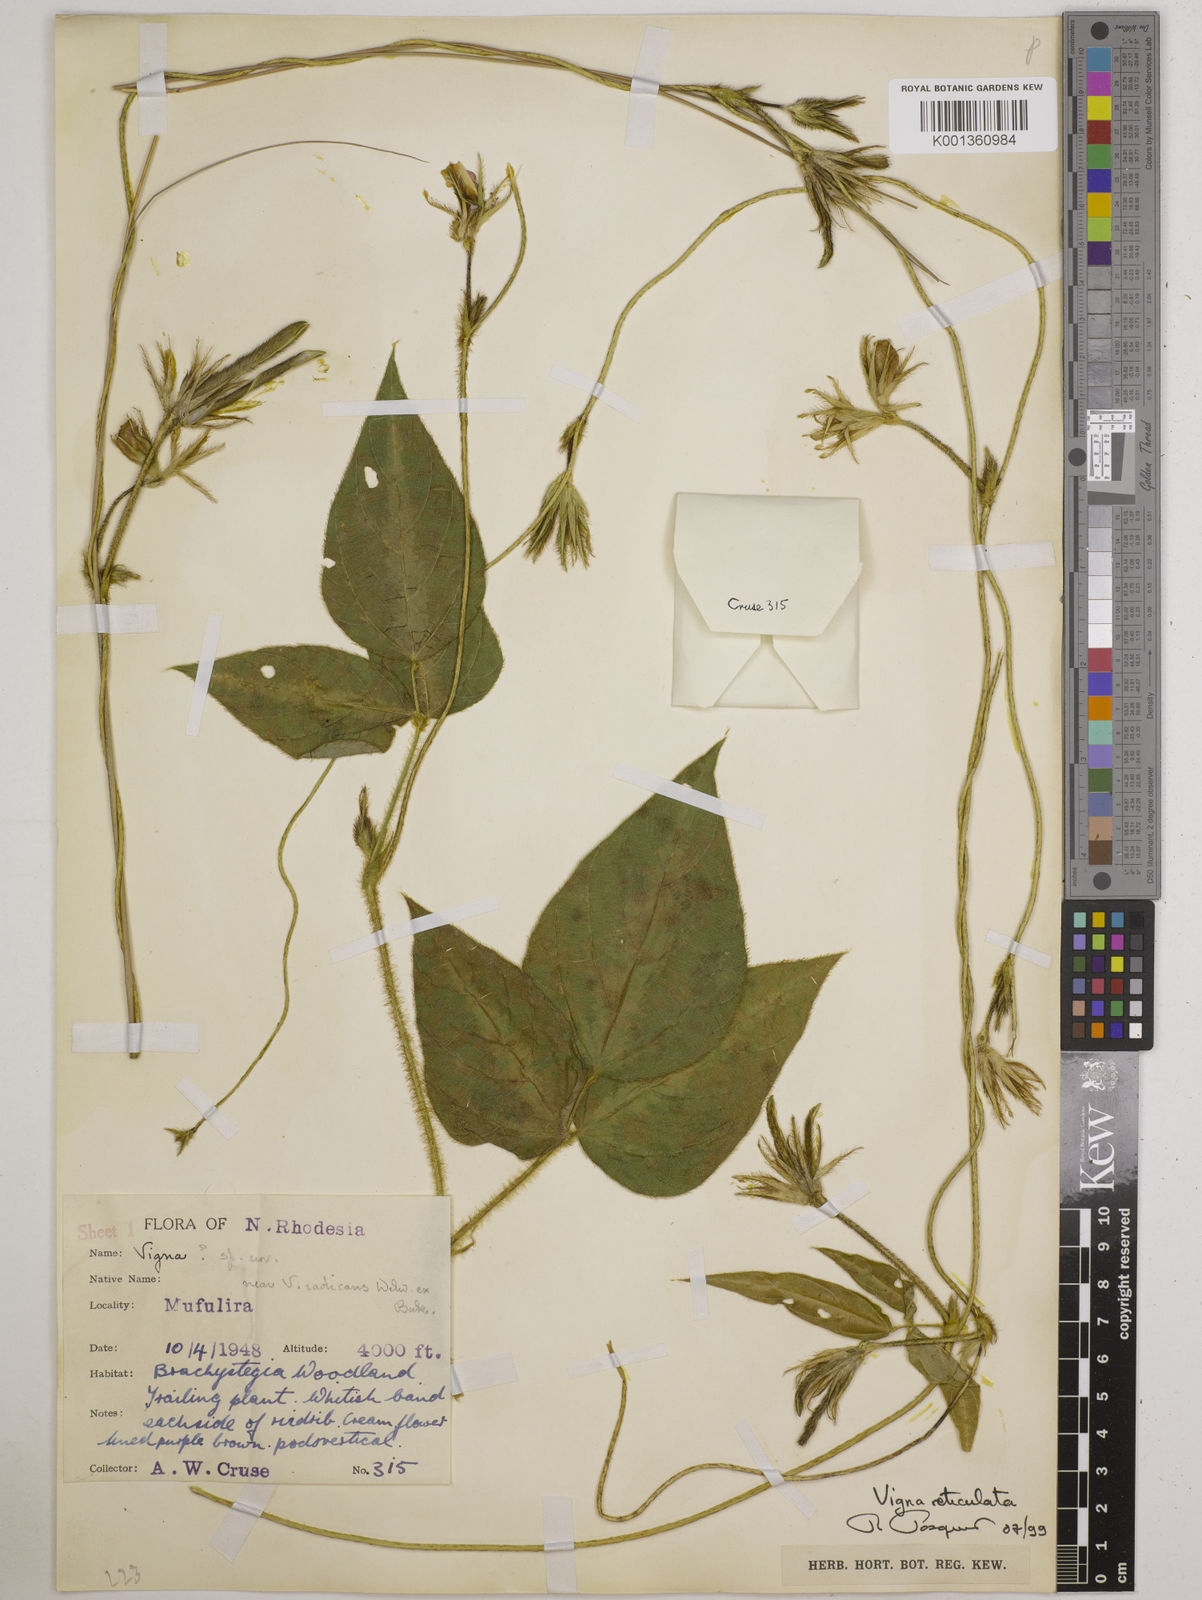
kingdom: Plantae
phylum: Tracheophyta
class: Magnoliopsida
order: Fabales
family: Fabaceae
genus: Vigna
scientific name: Vigna reticulata
